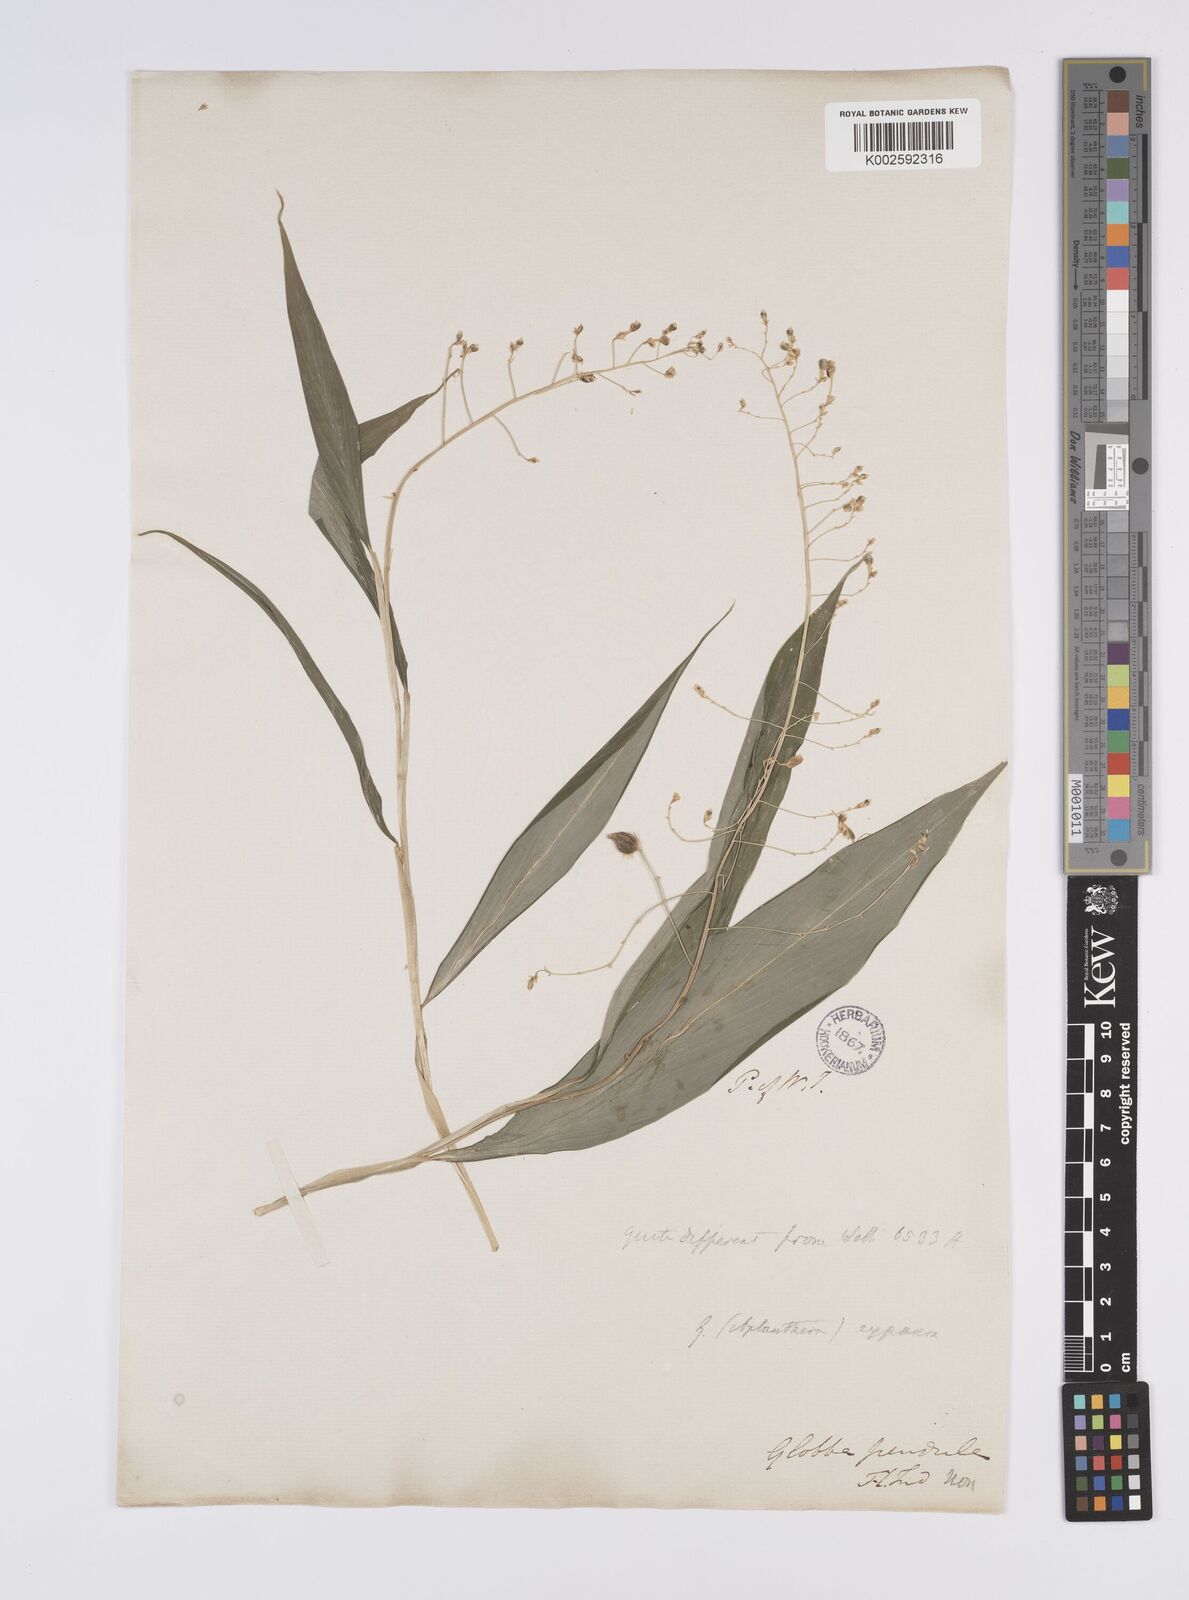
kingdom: Plantae
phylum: Tracheophyta
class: Liliopsida
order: Zingiberales
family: Zingiberaceae
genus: Globba
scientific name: Globba pendula
